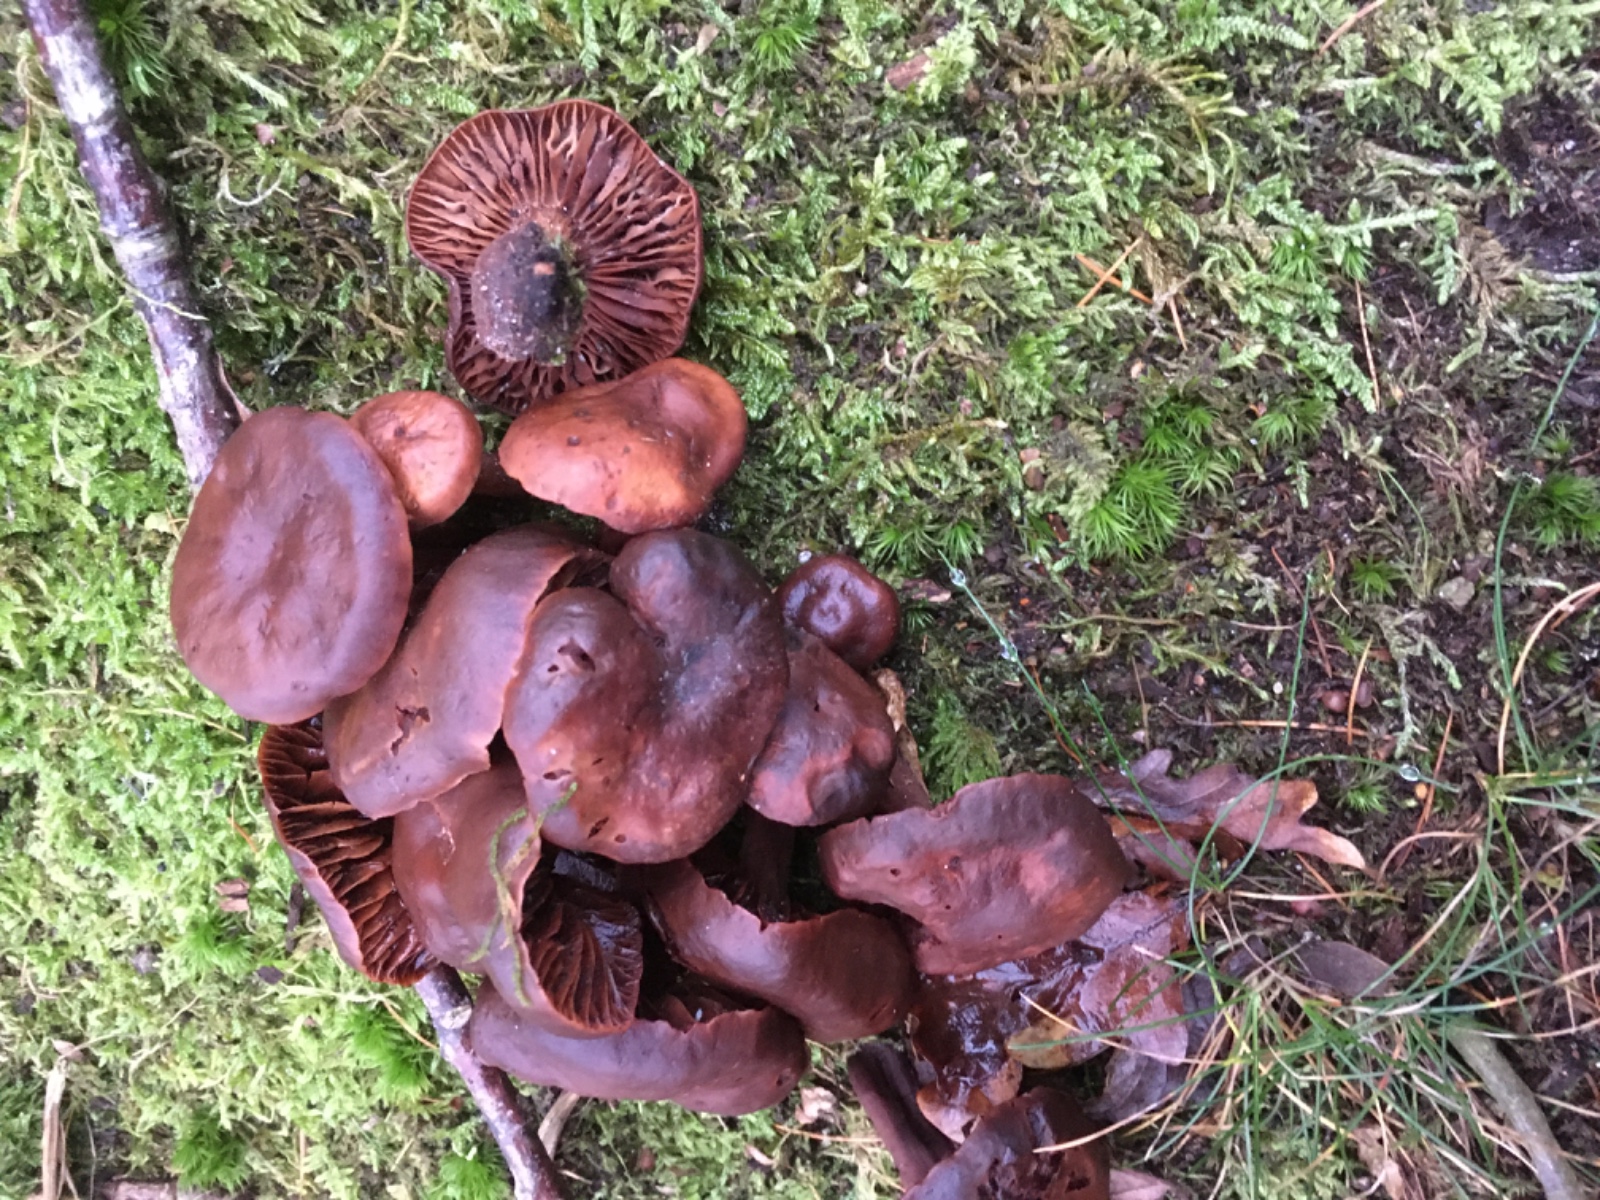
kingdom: Fungi
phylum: Basidiomycota
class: Agaricomycetes
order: Agaricales
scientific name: Agaricales
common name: champignonordenen
